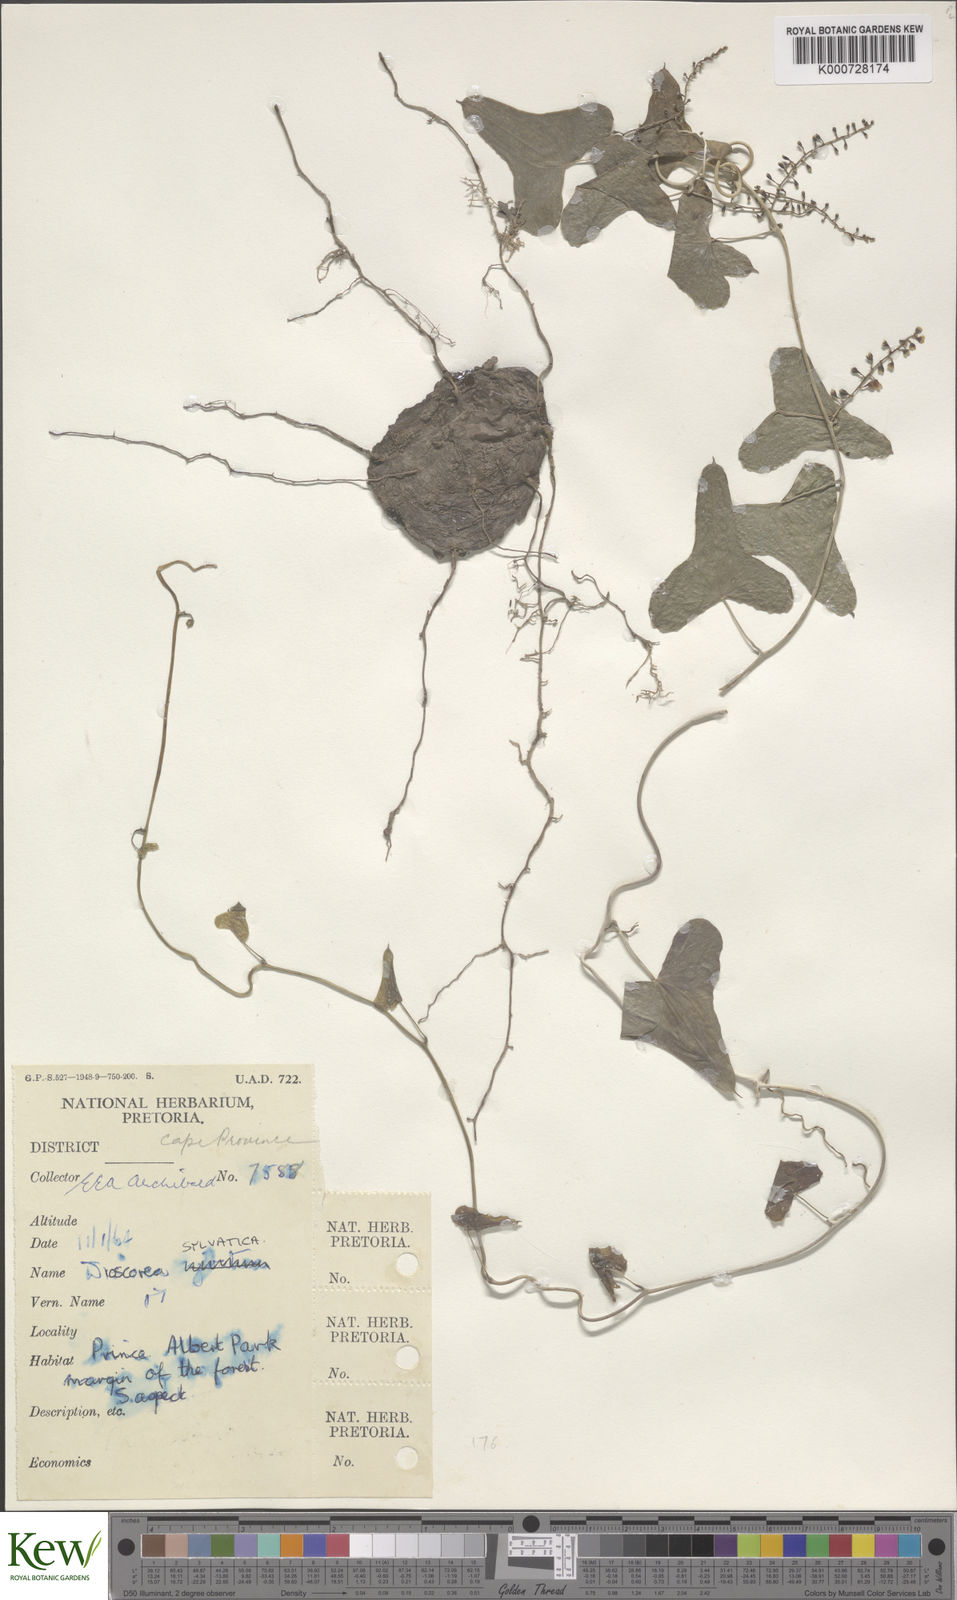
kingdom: Plantae
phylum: Tracheophyta
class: Liliopsida
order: Dioscoreales
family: Dioscoreaceae
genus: Dioscorea
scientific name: Dioscorea sylvatica
